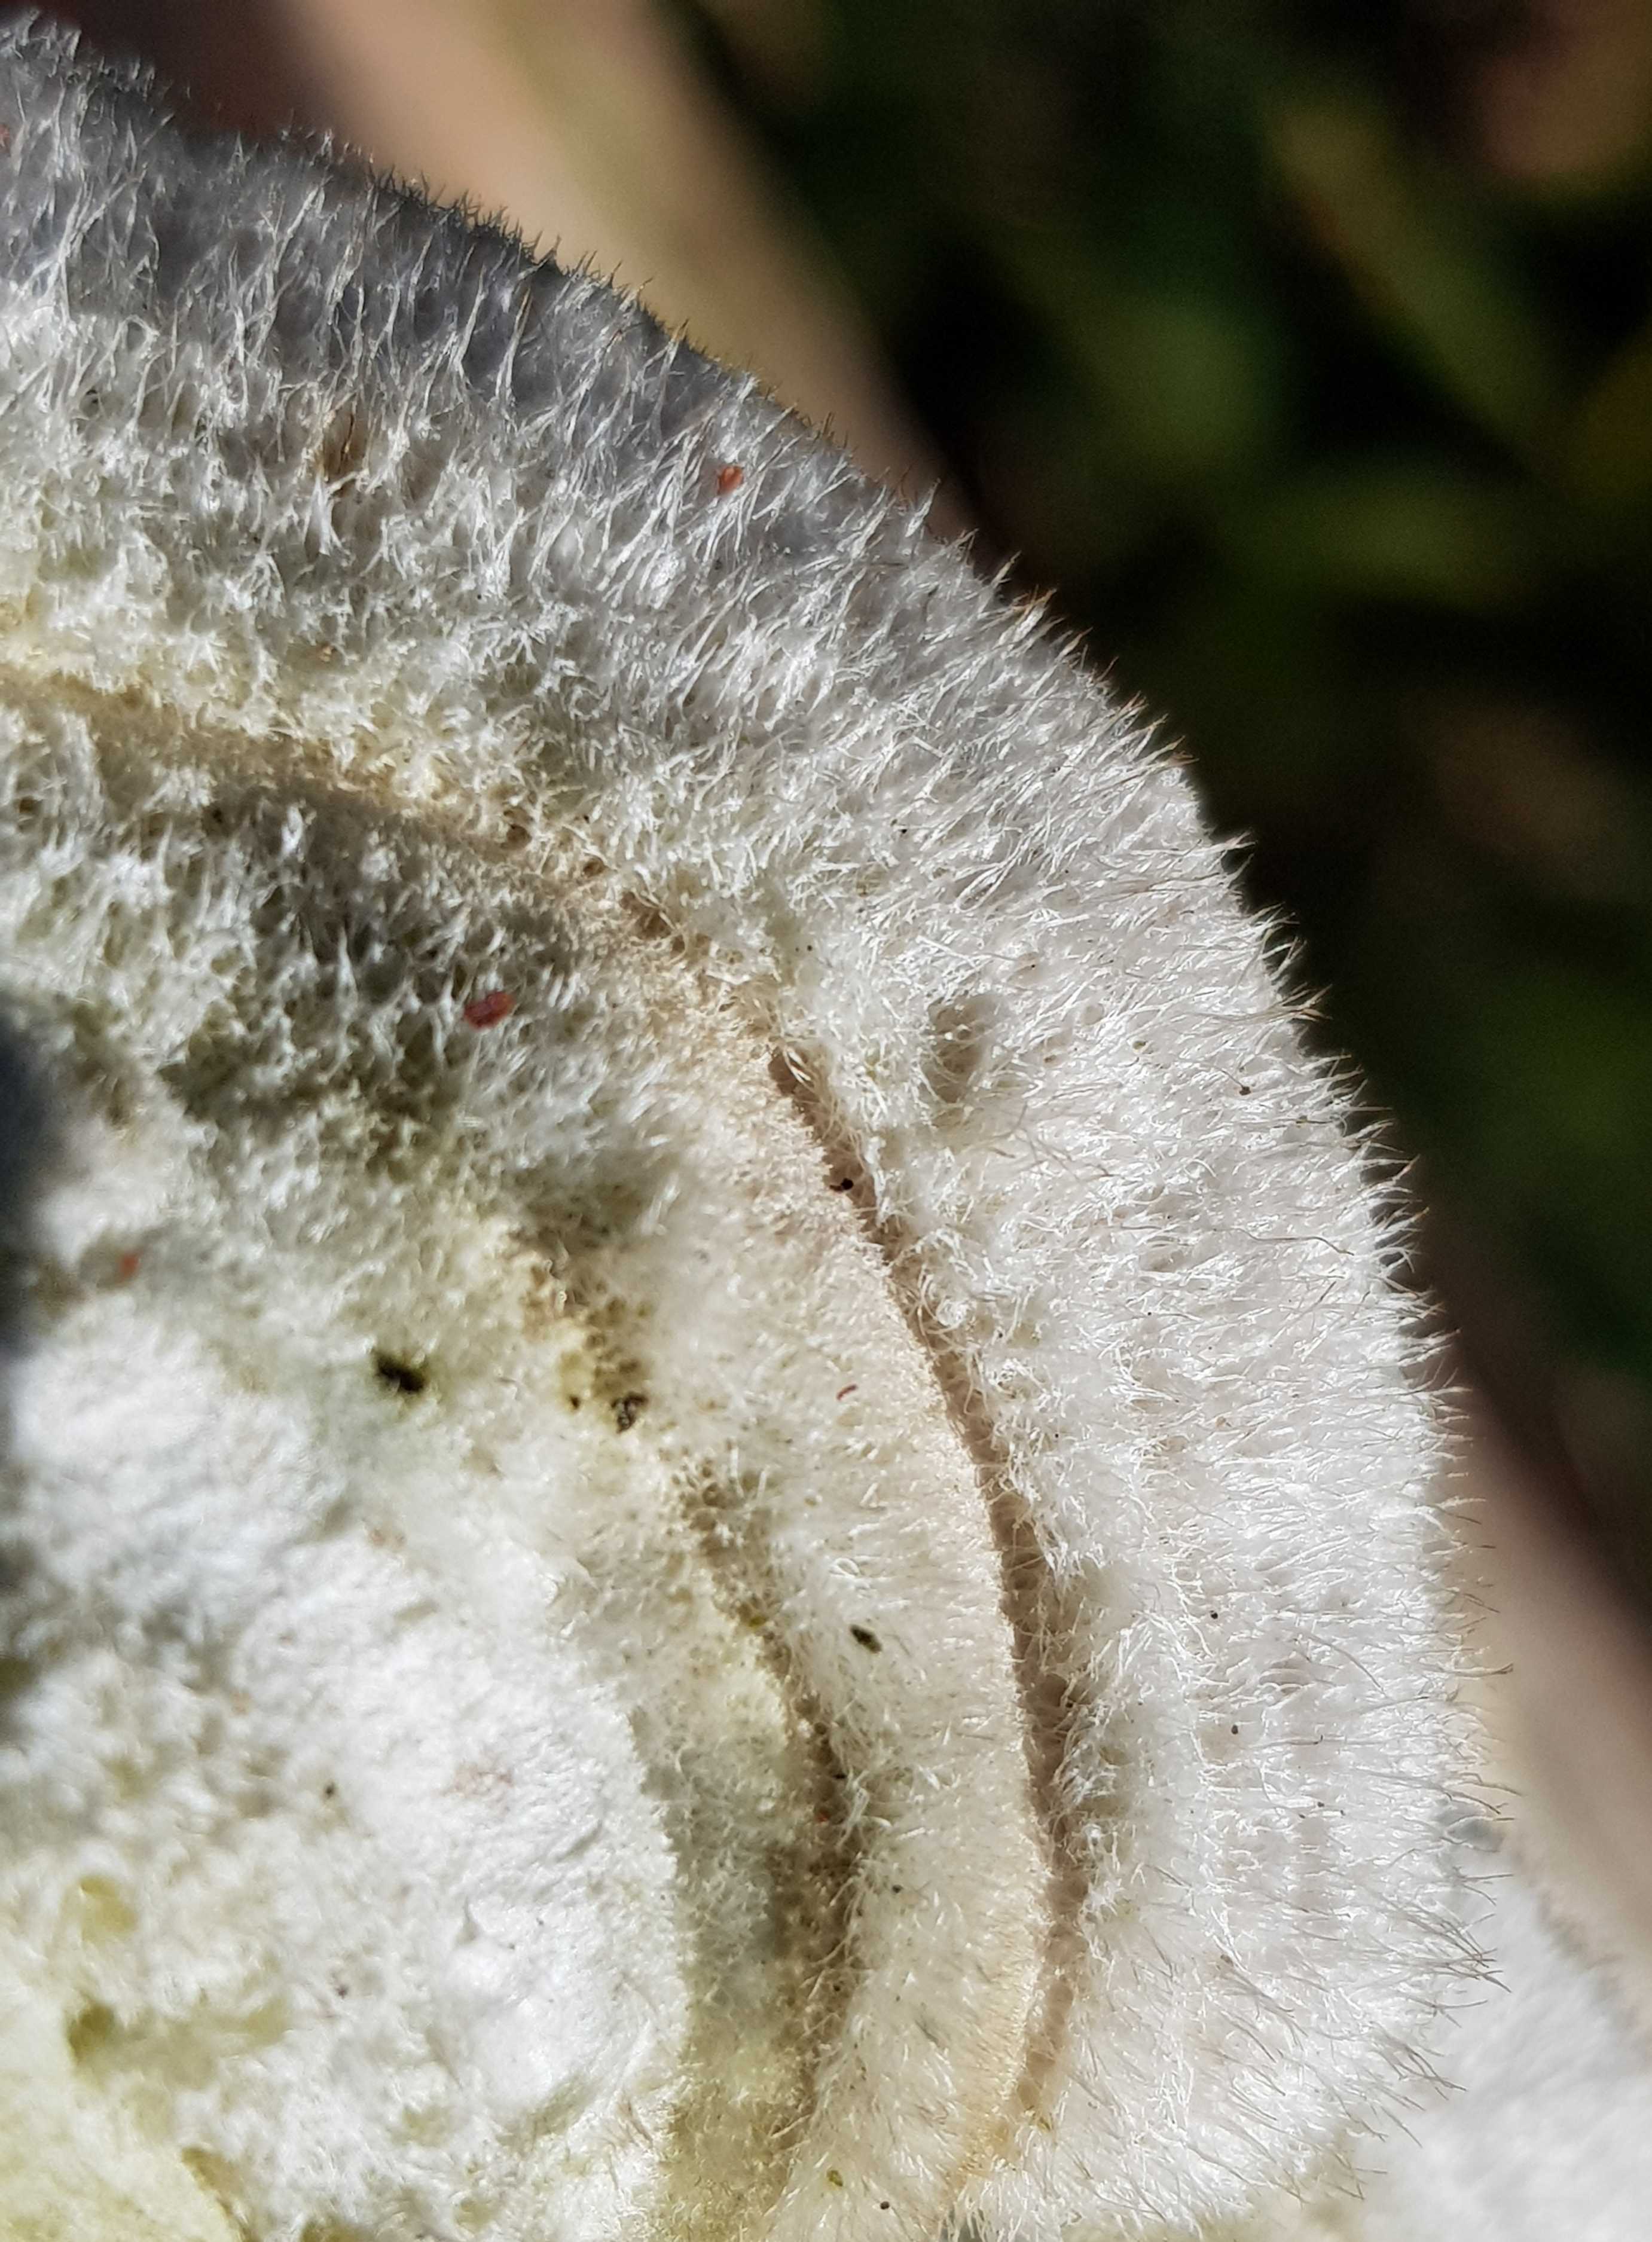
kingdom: Fungi
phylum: Basidiomycota
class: Agaricomycetes
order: Polyporales
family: Polyporaceae
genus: Trametes
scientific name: Trametes hirsuta
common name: håret læderporesvamp
